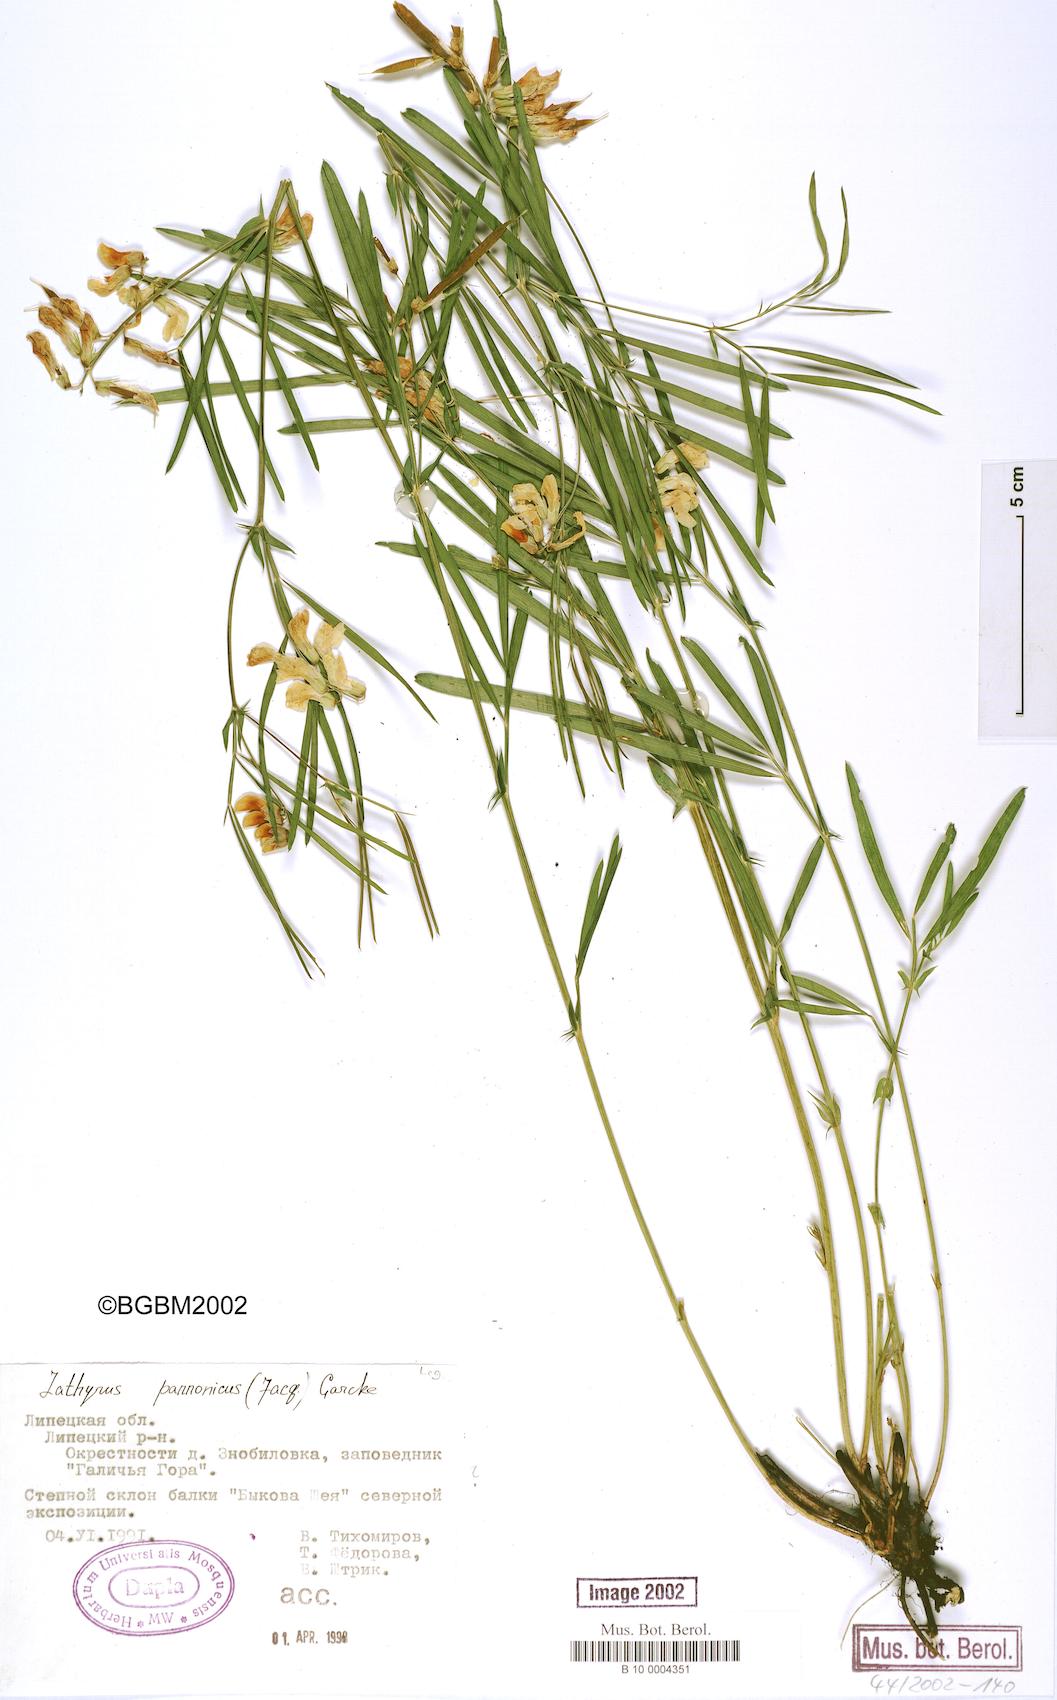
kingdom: Plantae
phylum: Tracheophyta
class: Magnoliopsida
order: Fabales
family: Fabaceae
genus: Lathyrus
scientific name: Lathyrus pannonicus
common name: Pea
